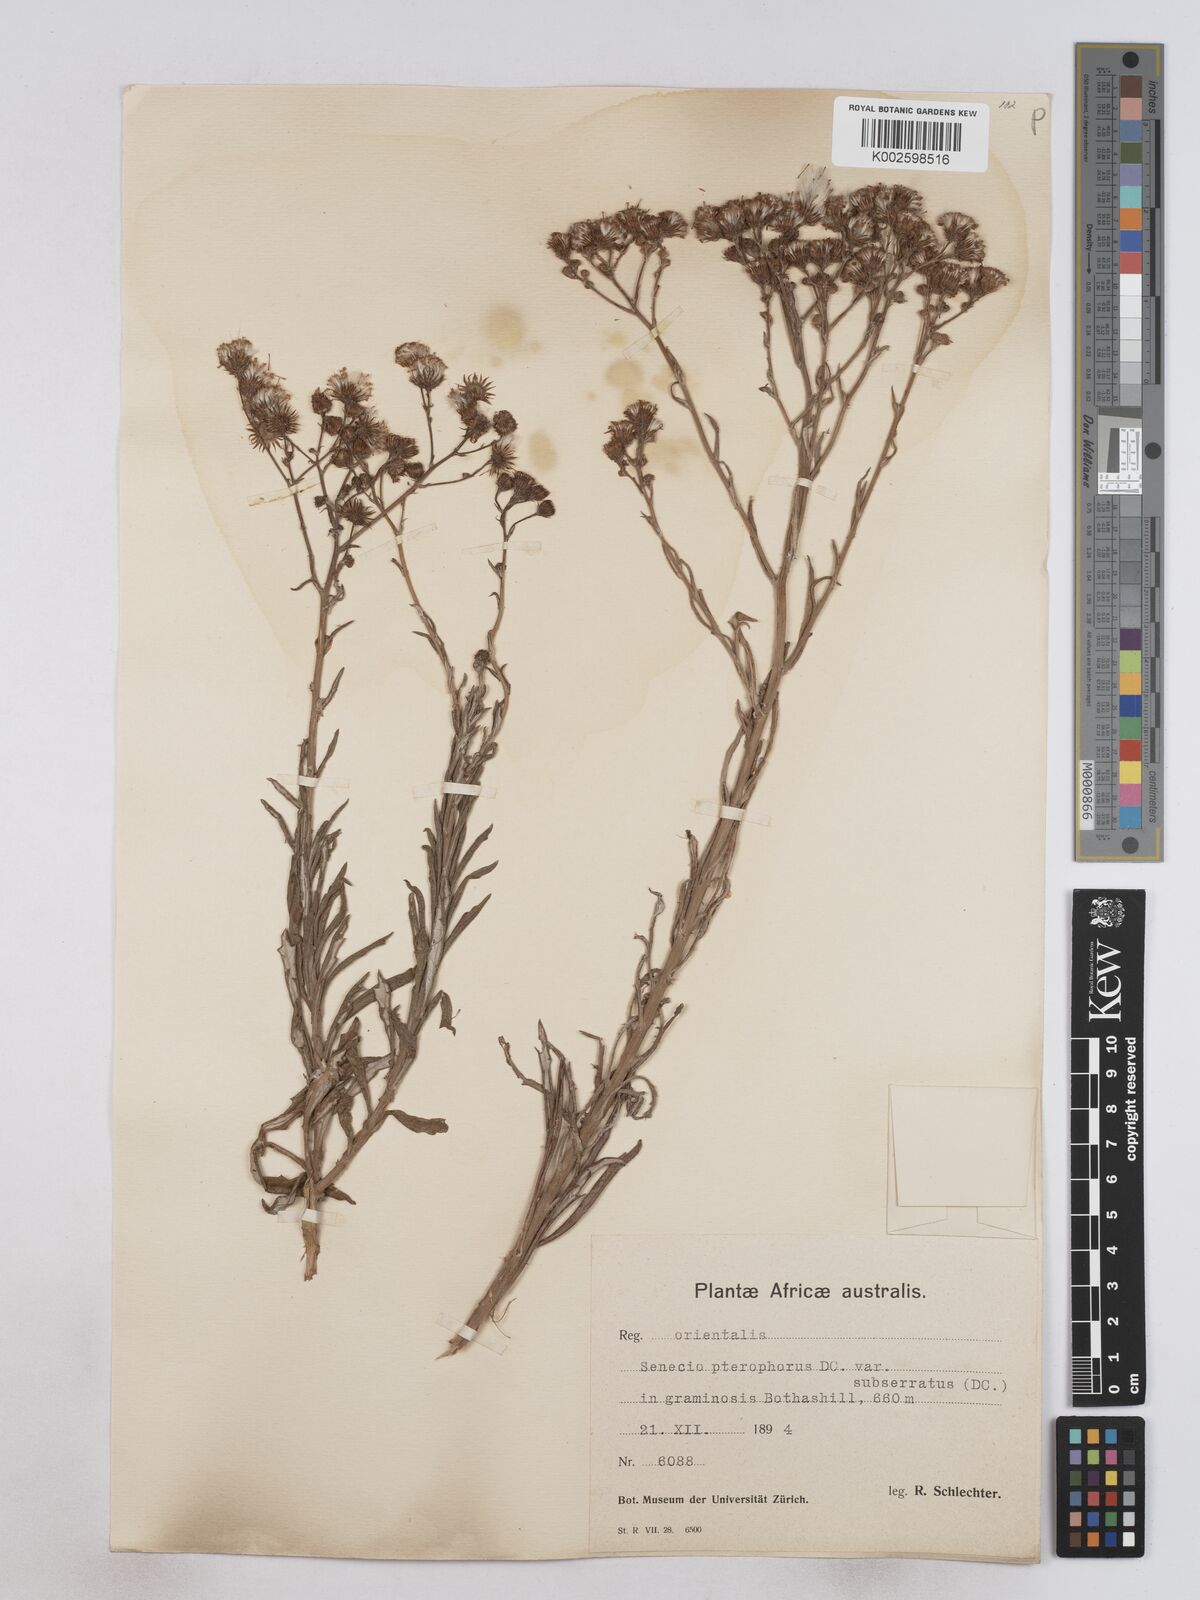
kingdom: Plantae
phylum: Tracheophyta
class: Magnoliopsida
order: Asterales
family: Asteraceae
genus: Senecio
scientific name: Senecio ilicifolius
